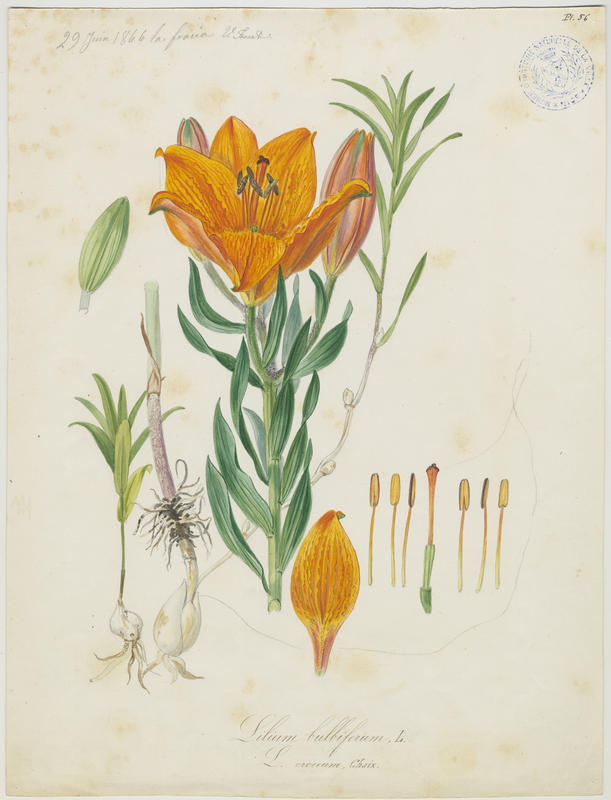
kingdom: Plantae
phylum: Tracheophyta
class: Liliopsida
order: Liliales
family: Liliaceae
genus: Lilium
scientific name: Lilium bulbiferum
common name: Orange lily
